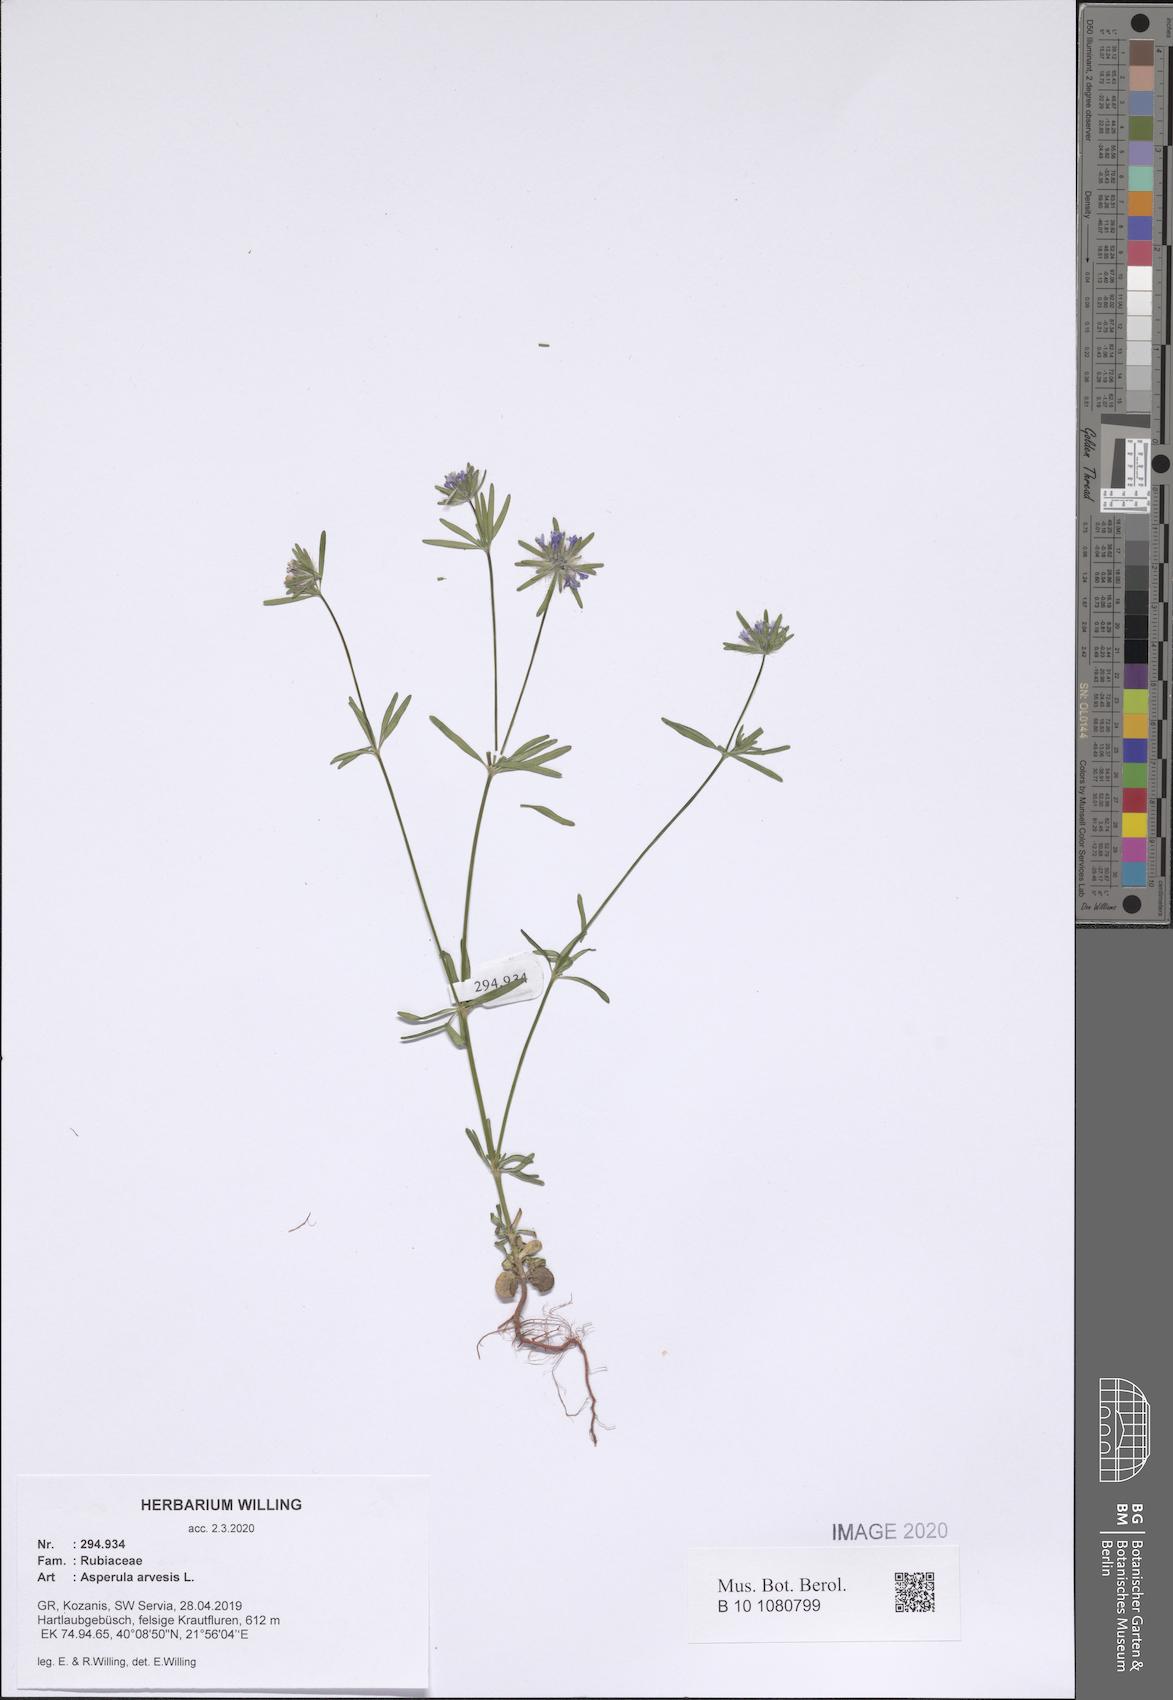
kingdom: Plantae
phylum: Tracheophyta
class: Magnoliopsida
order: Gentianales
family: Rubiaceae
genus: Asperula
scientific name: Asperula arvensis
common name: Blue woodruff
